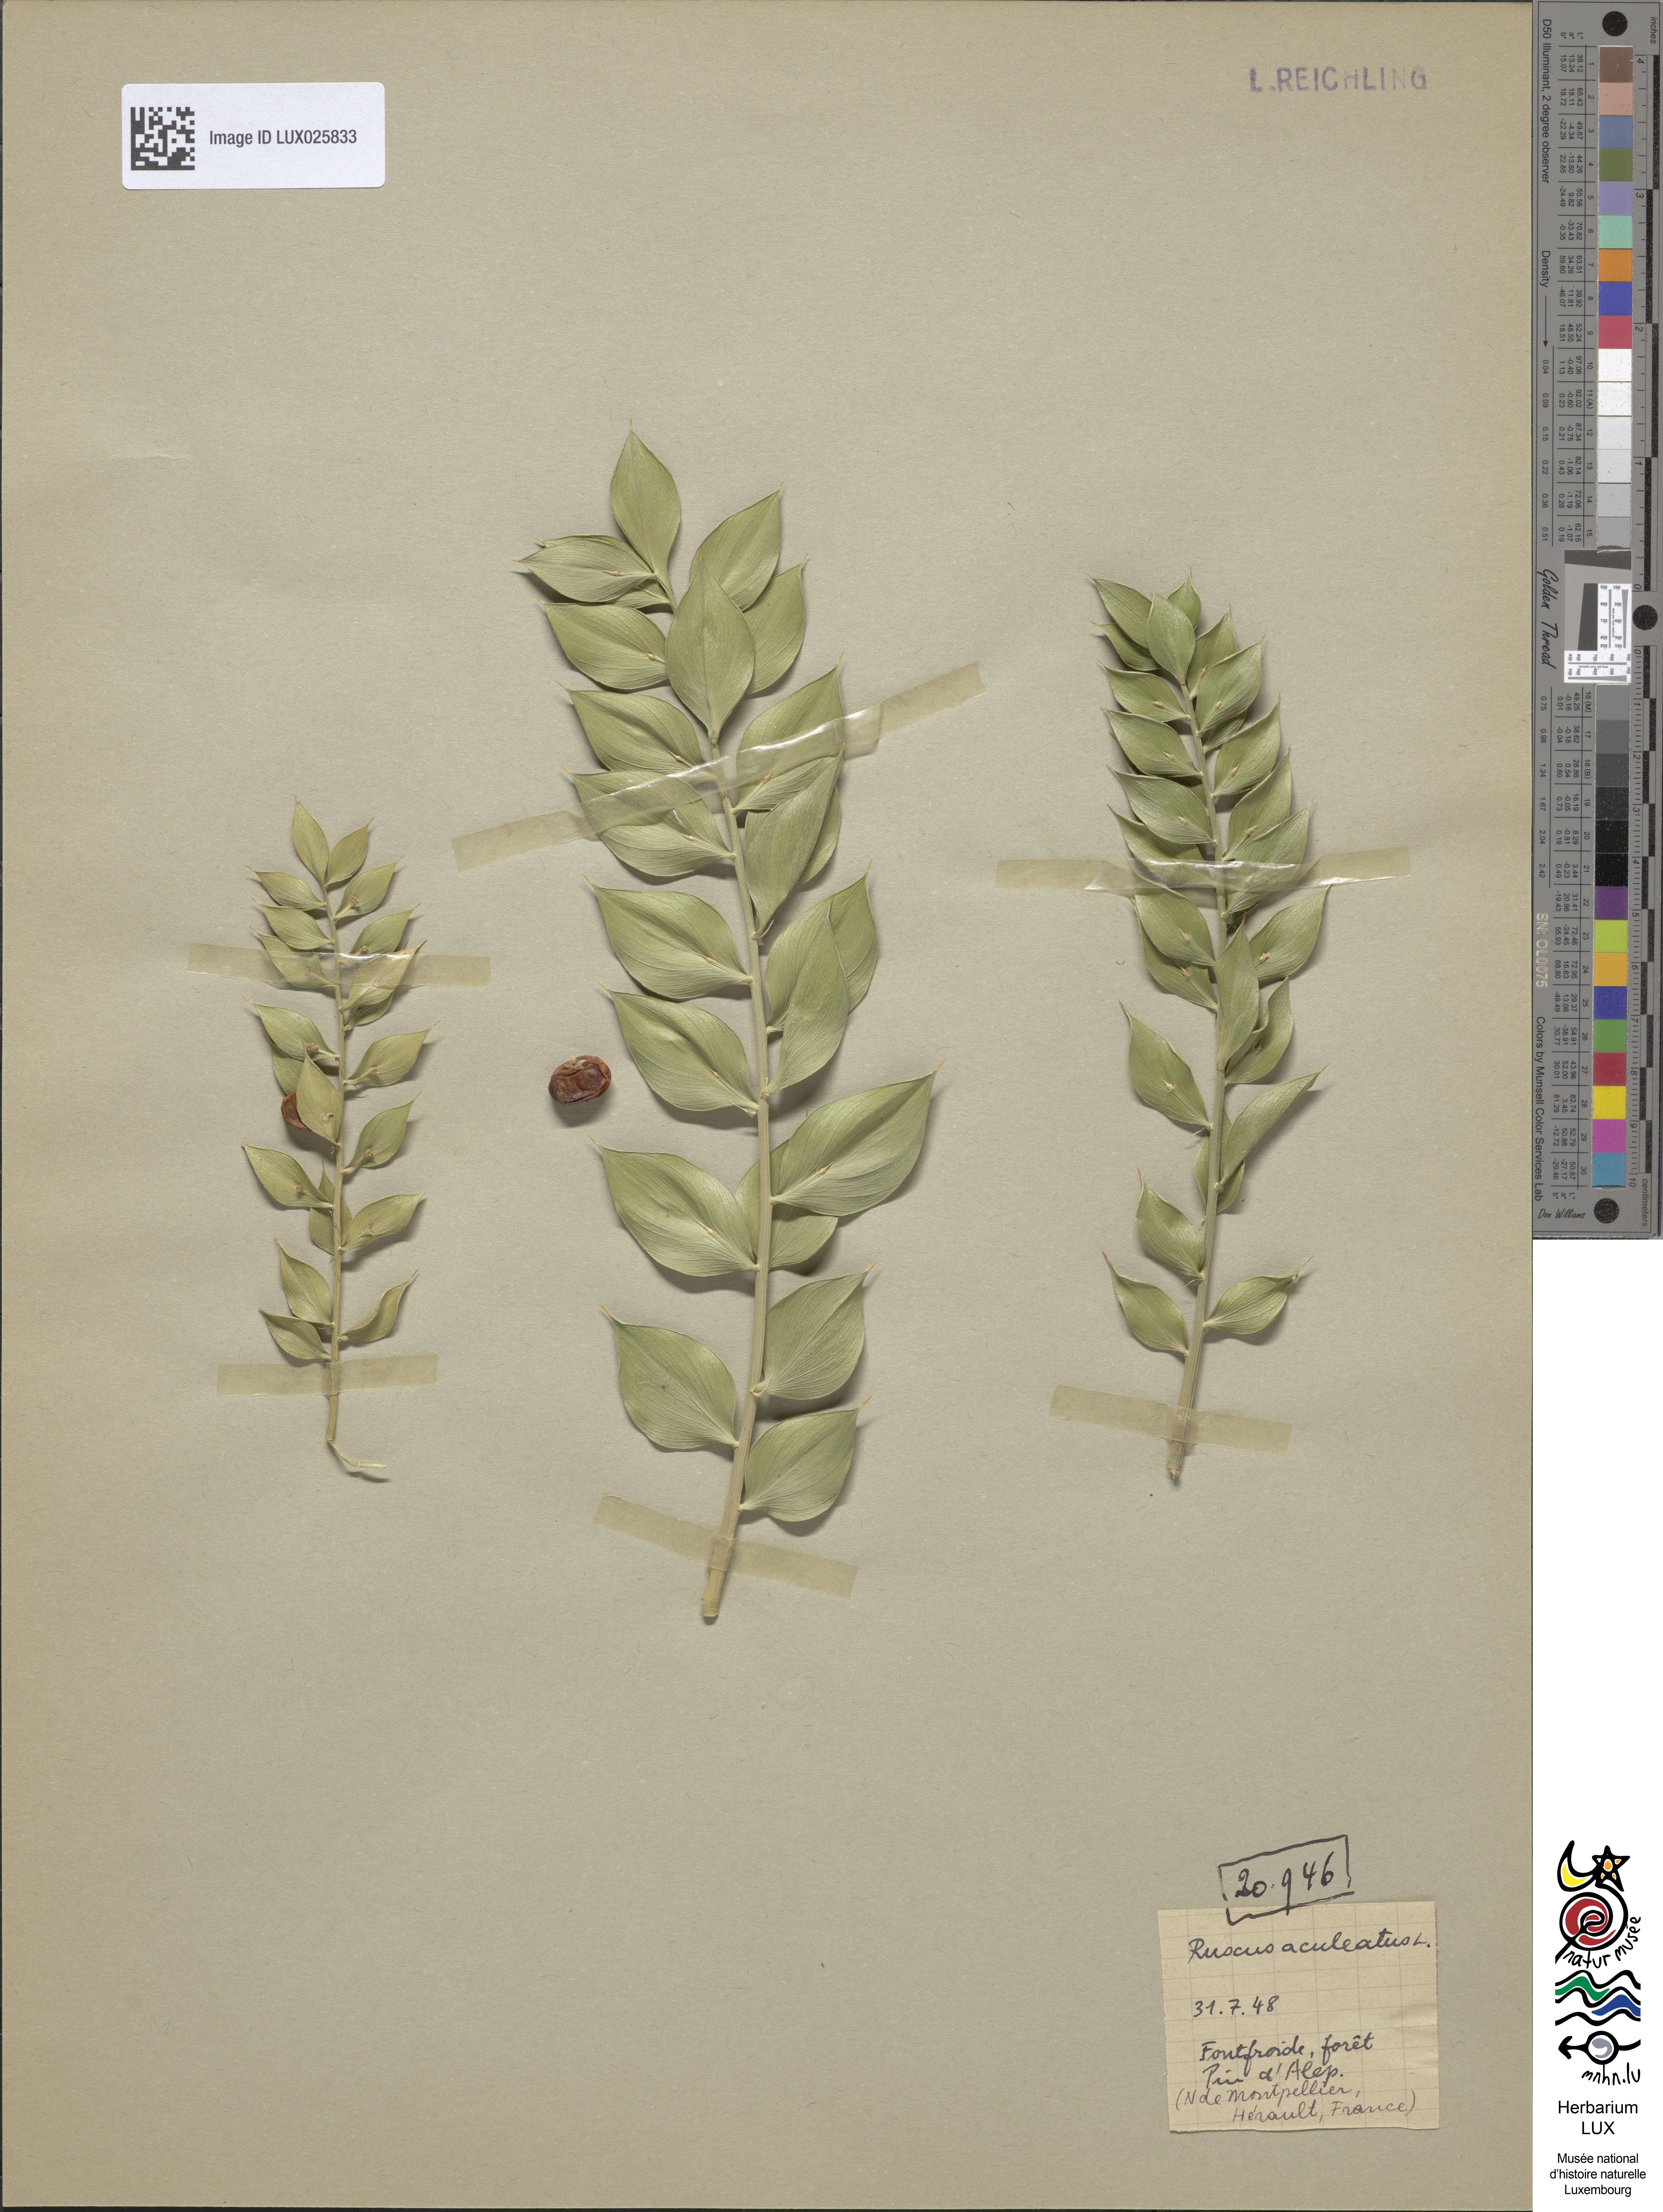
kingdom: Plantae
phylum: Tracheophyta
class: Liliopsida
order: Asparagales
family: Asparagaceae
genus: Ruscus
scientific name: Ruscus aculeatus
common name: Butcher's-broom
